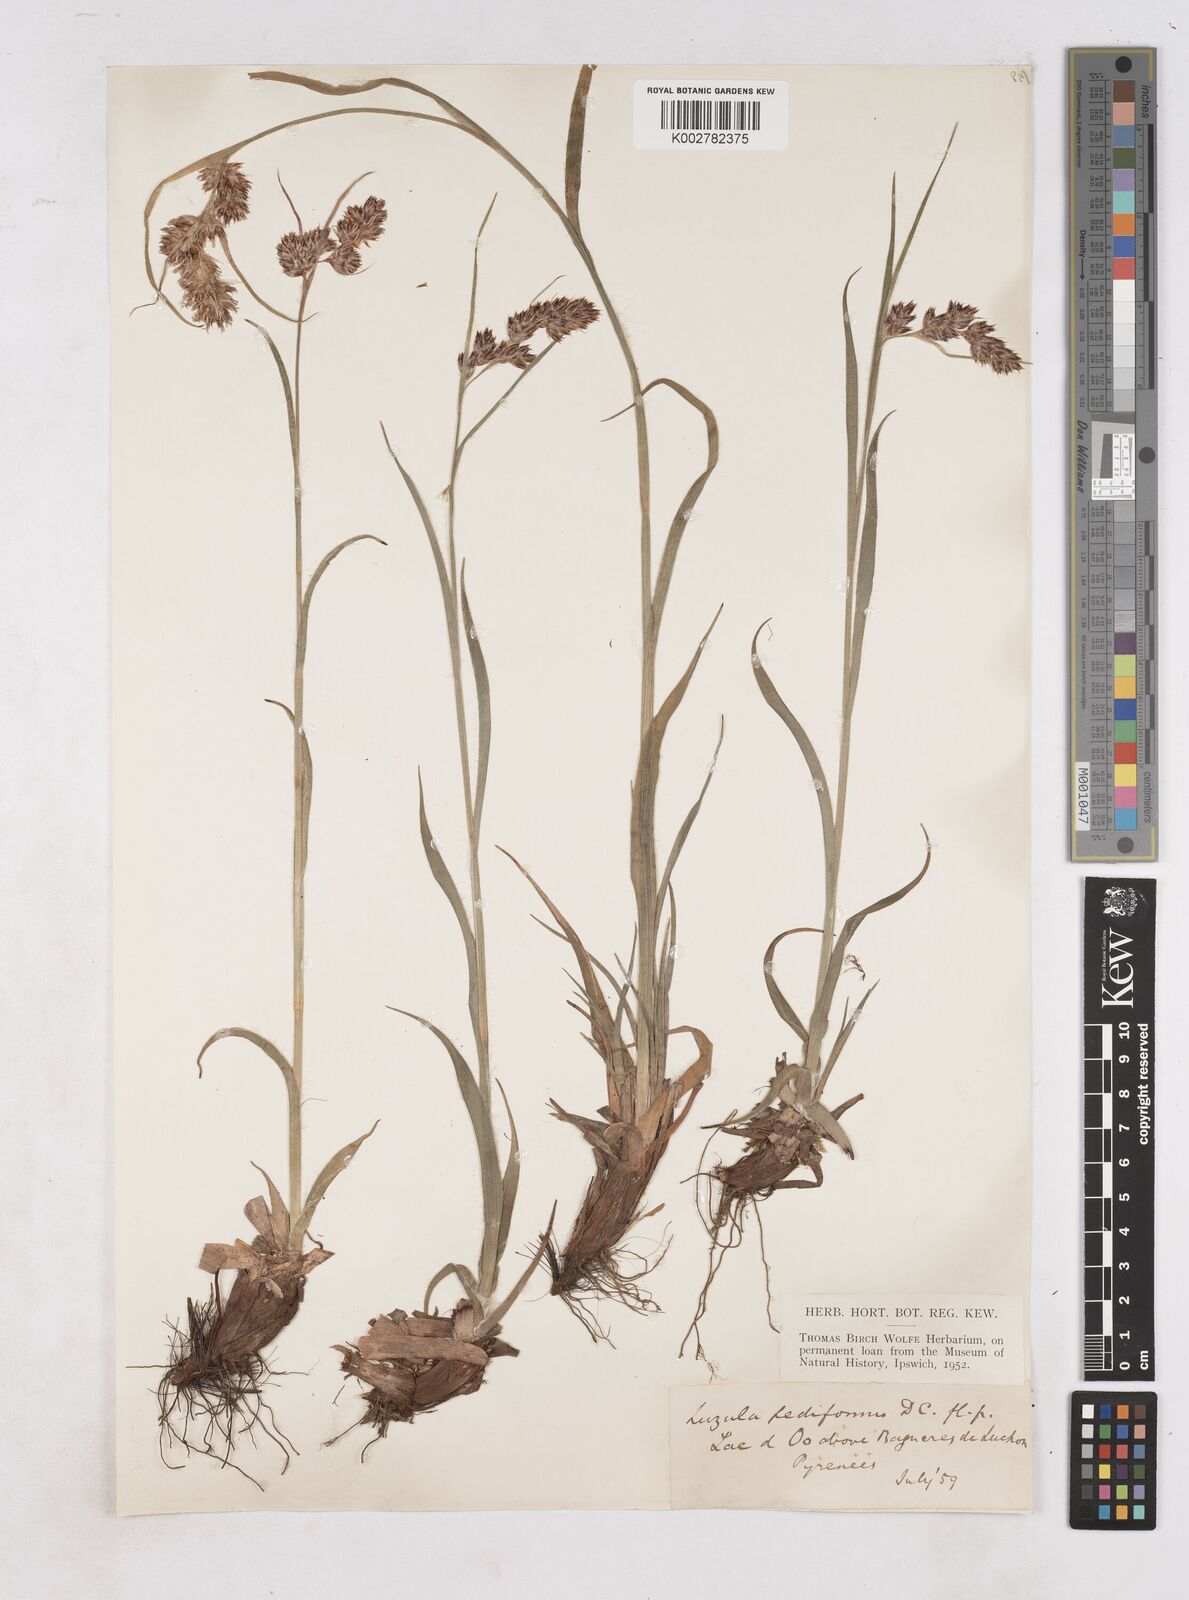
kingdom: Plantae
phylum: Tracheophyta
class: Liliopsida
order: Poales
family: Juncaceae
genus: Luzula
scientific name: Luzula pediformis
